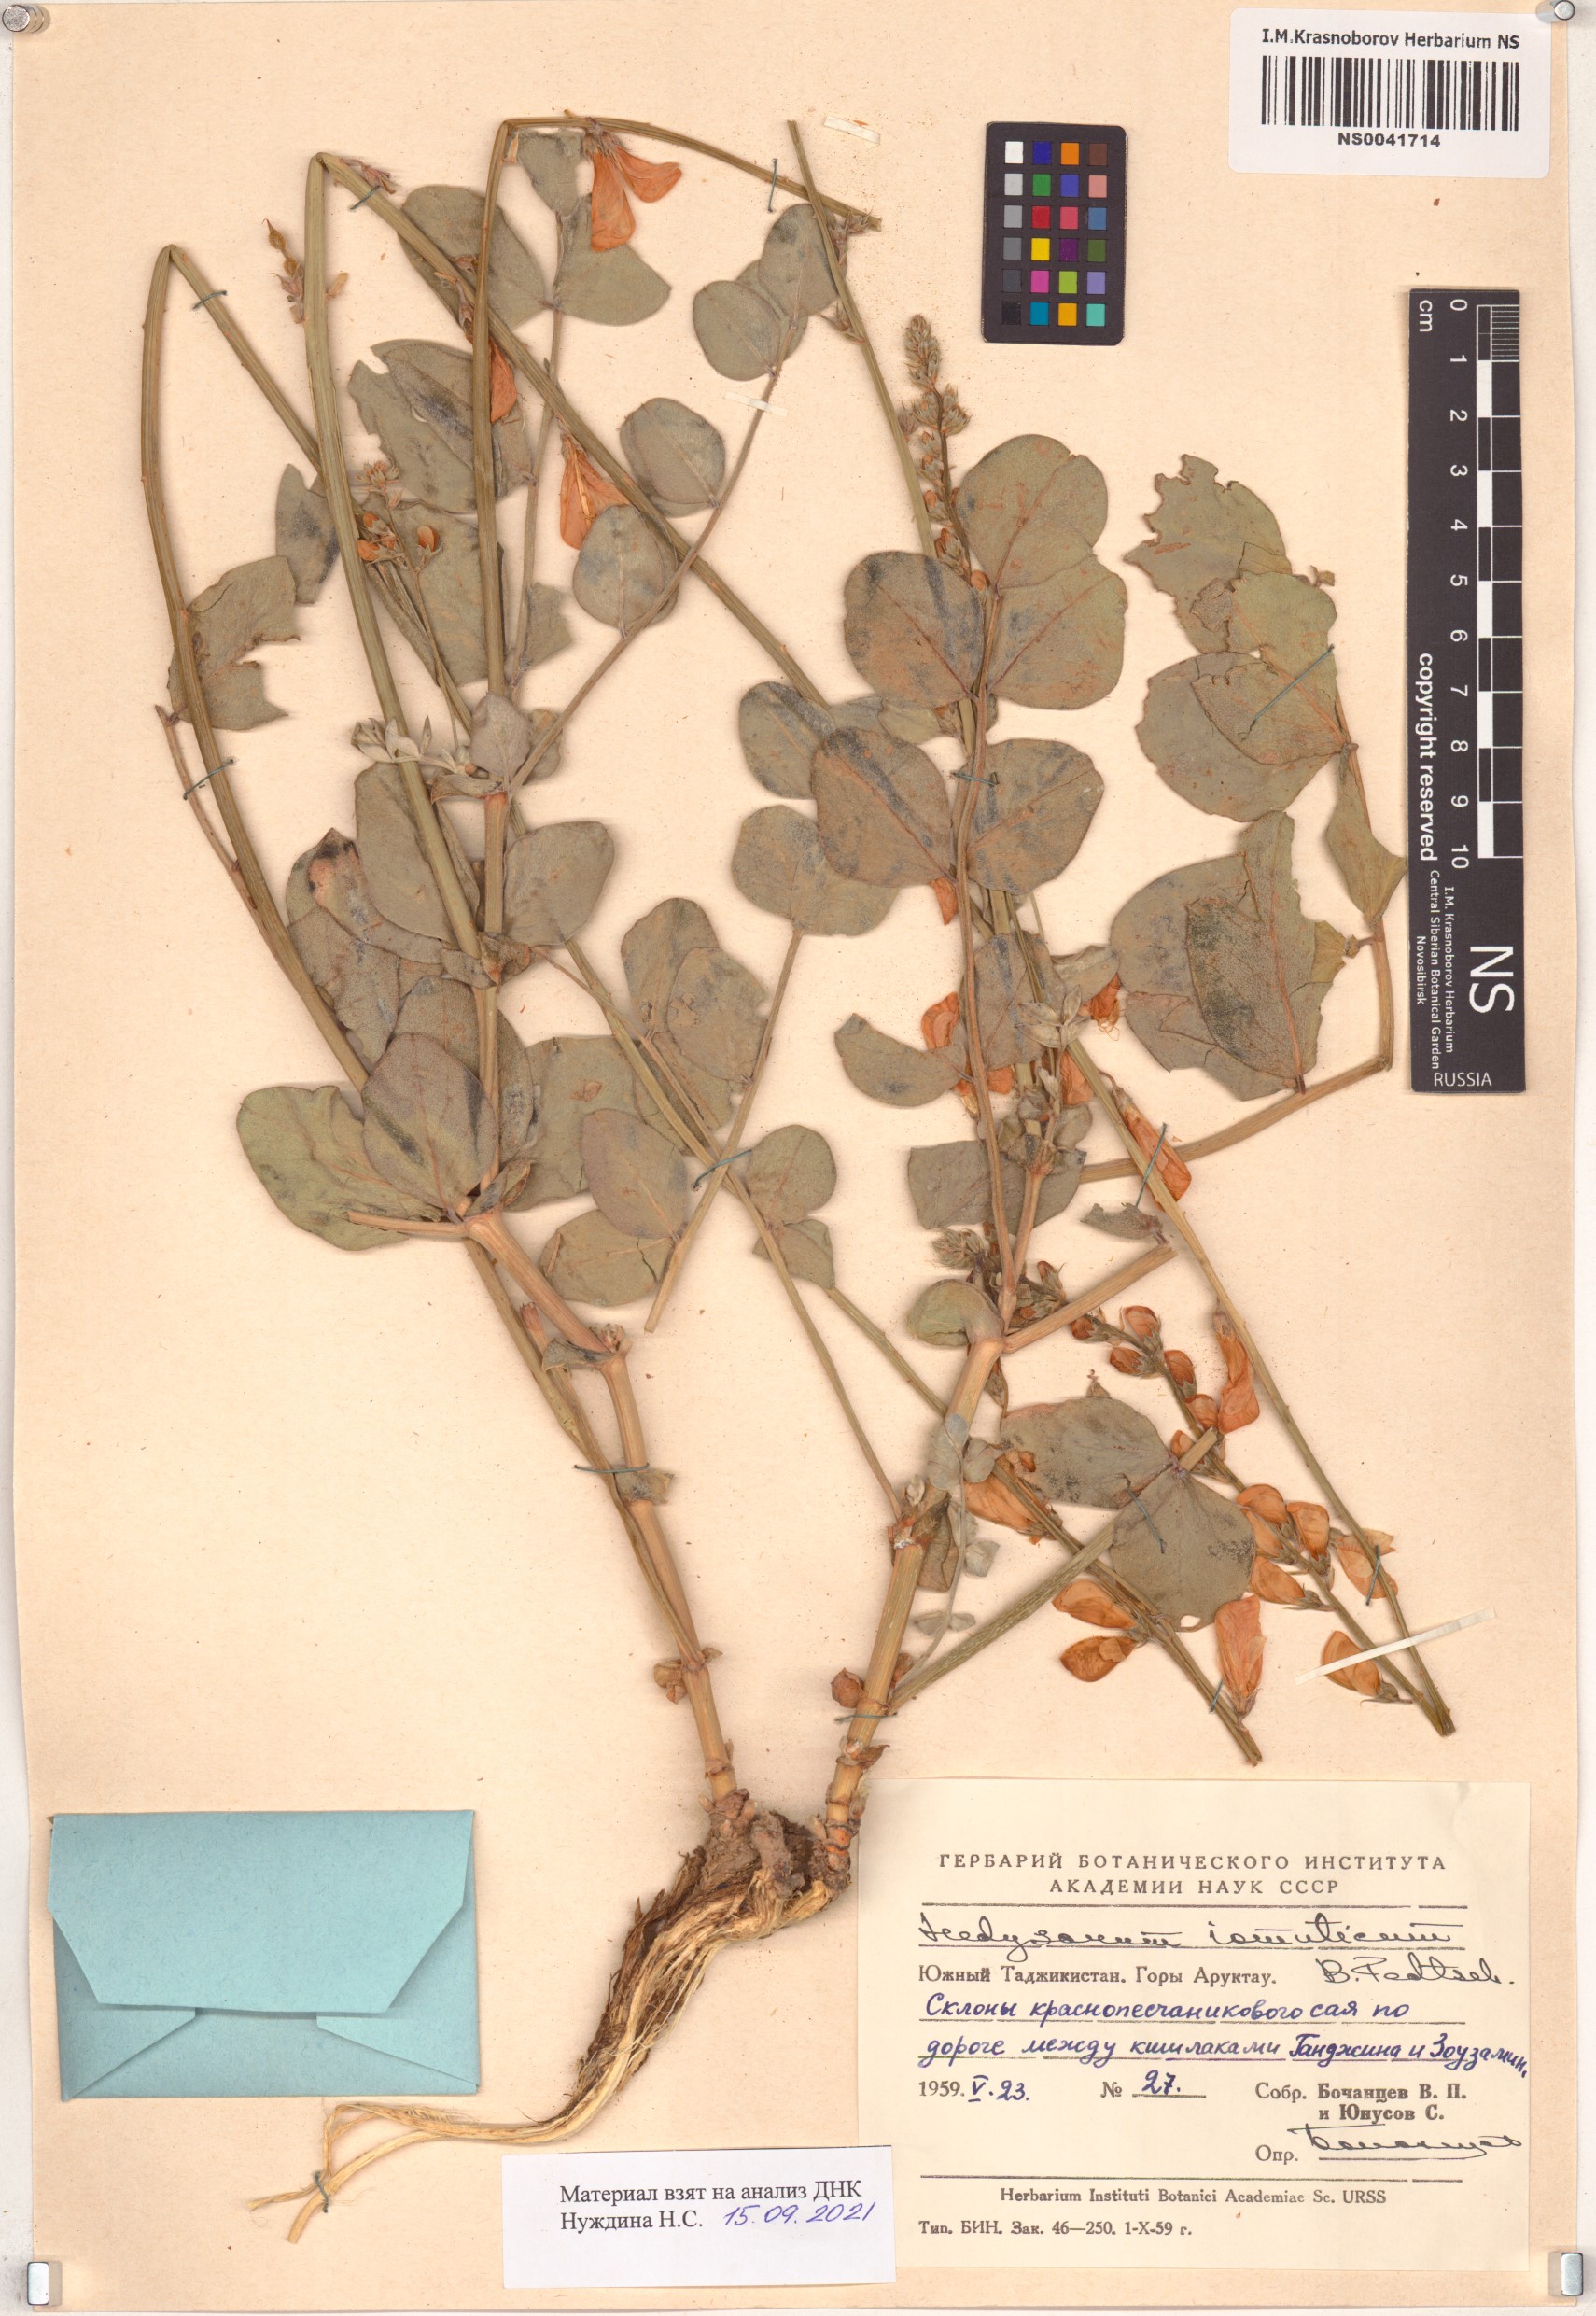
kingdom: Plantae
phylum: Tracheophyta
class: Magnoliopsida
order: Fabales
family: Fabaceae
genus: Hedysarum
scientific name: Hedysarum iomuticum
